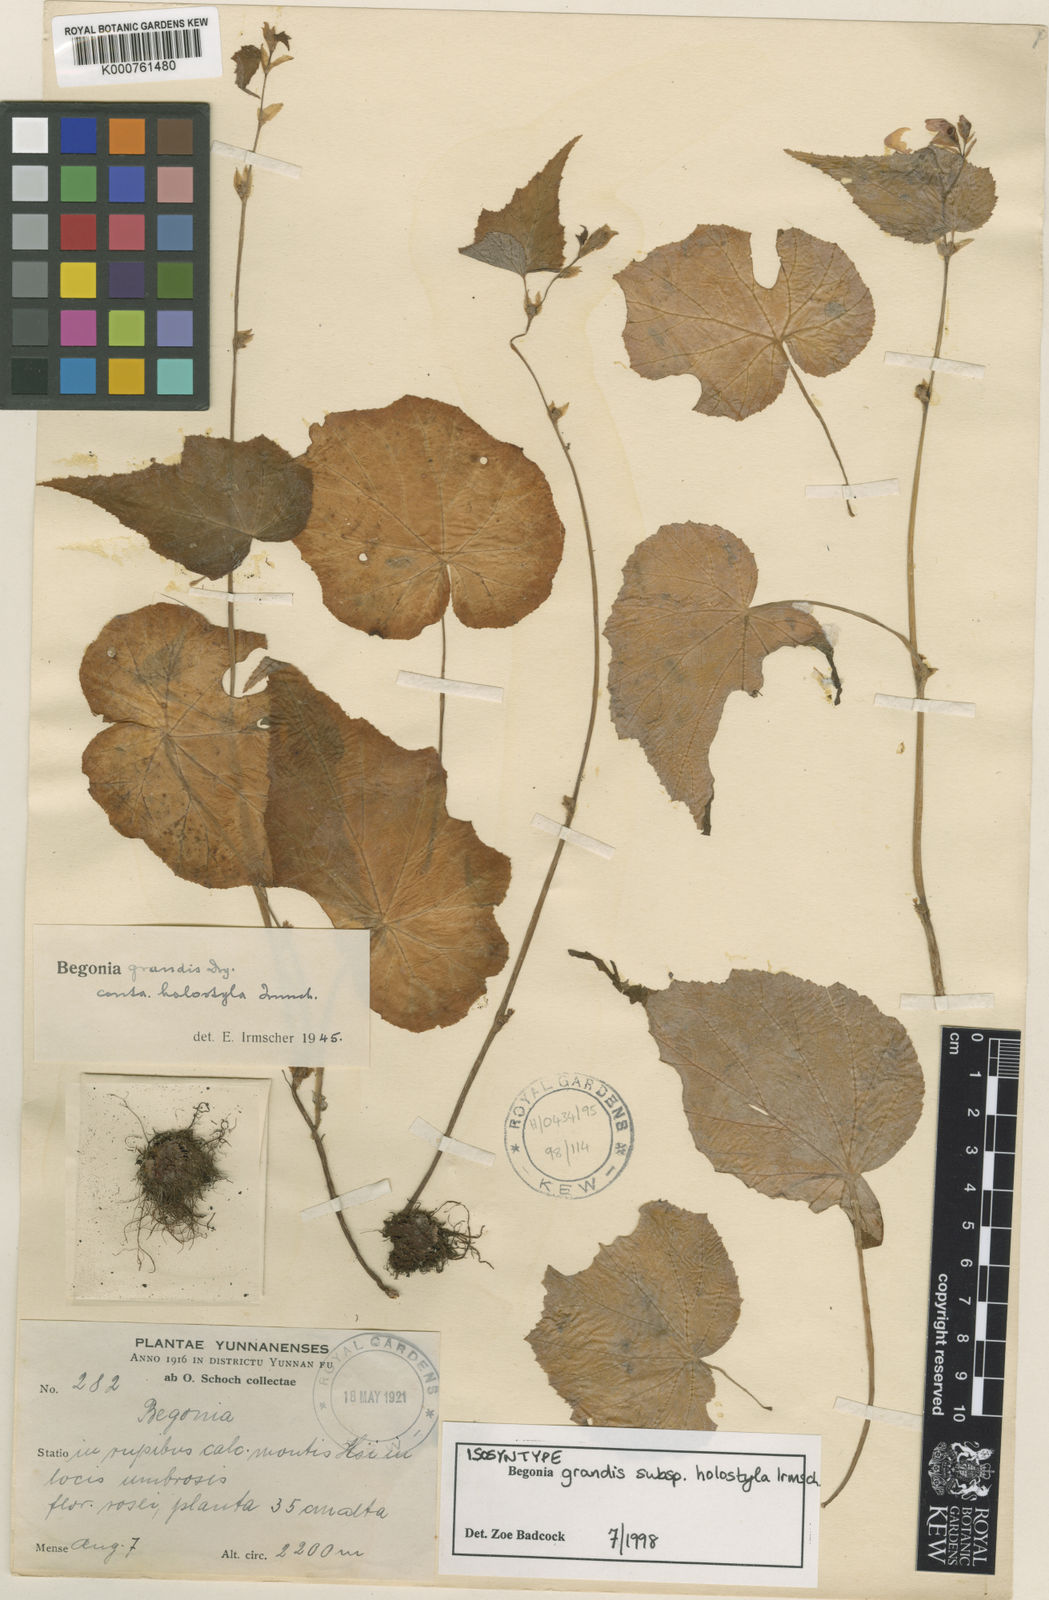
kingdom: Plantae
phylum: Tracheophyta
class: Magnoliopsida
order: Cucurbitales
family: Begoniaceae
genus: Begonia
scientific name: Begonia grandis
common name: Hardy begonia
